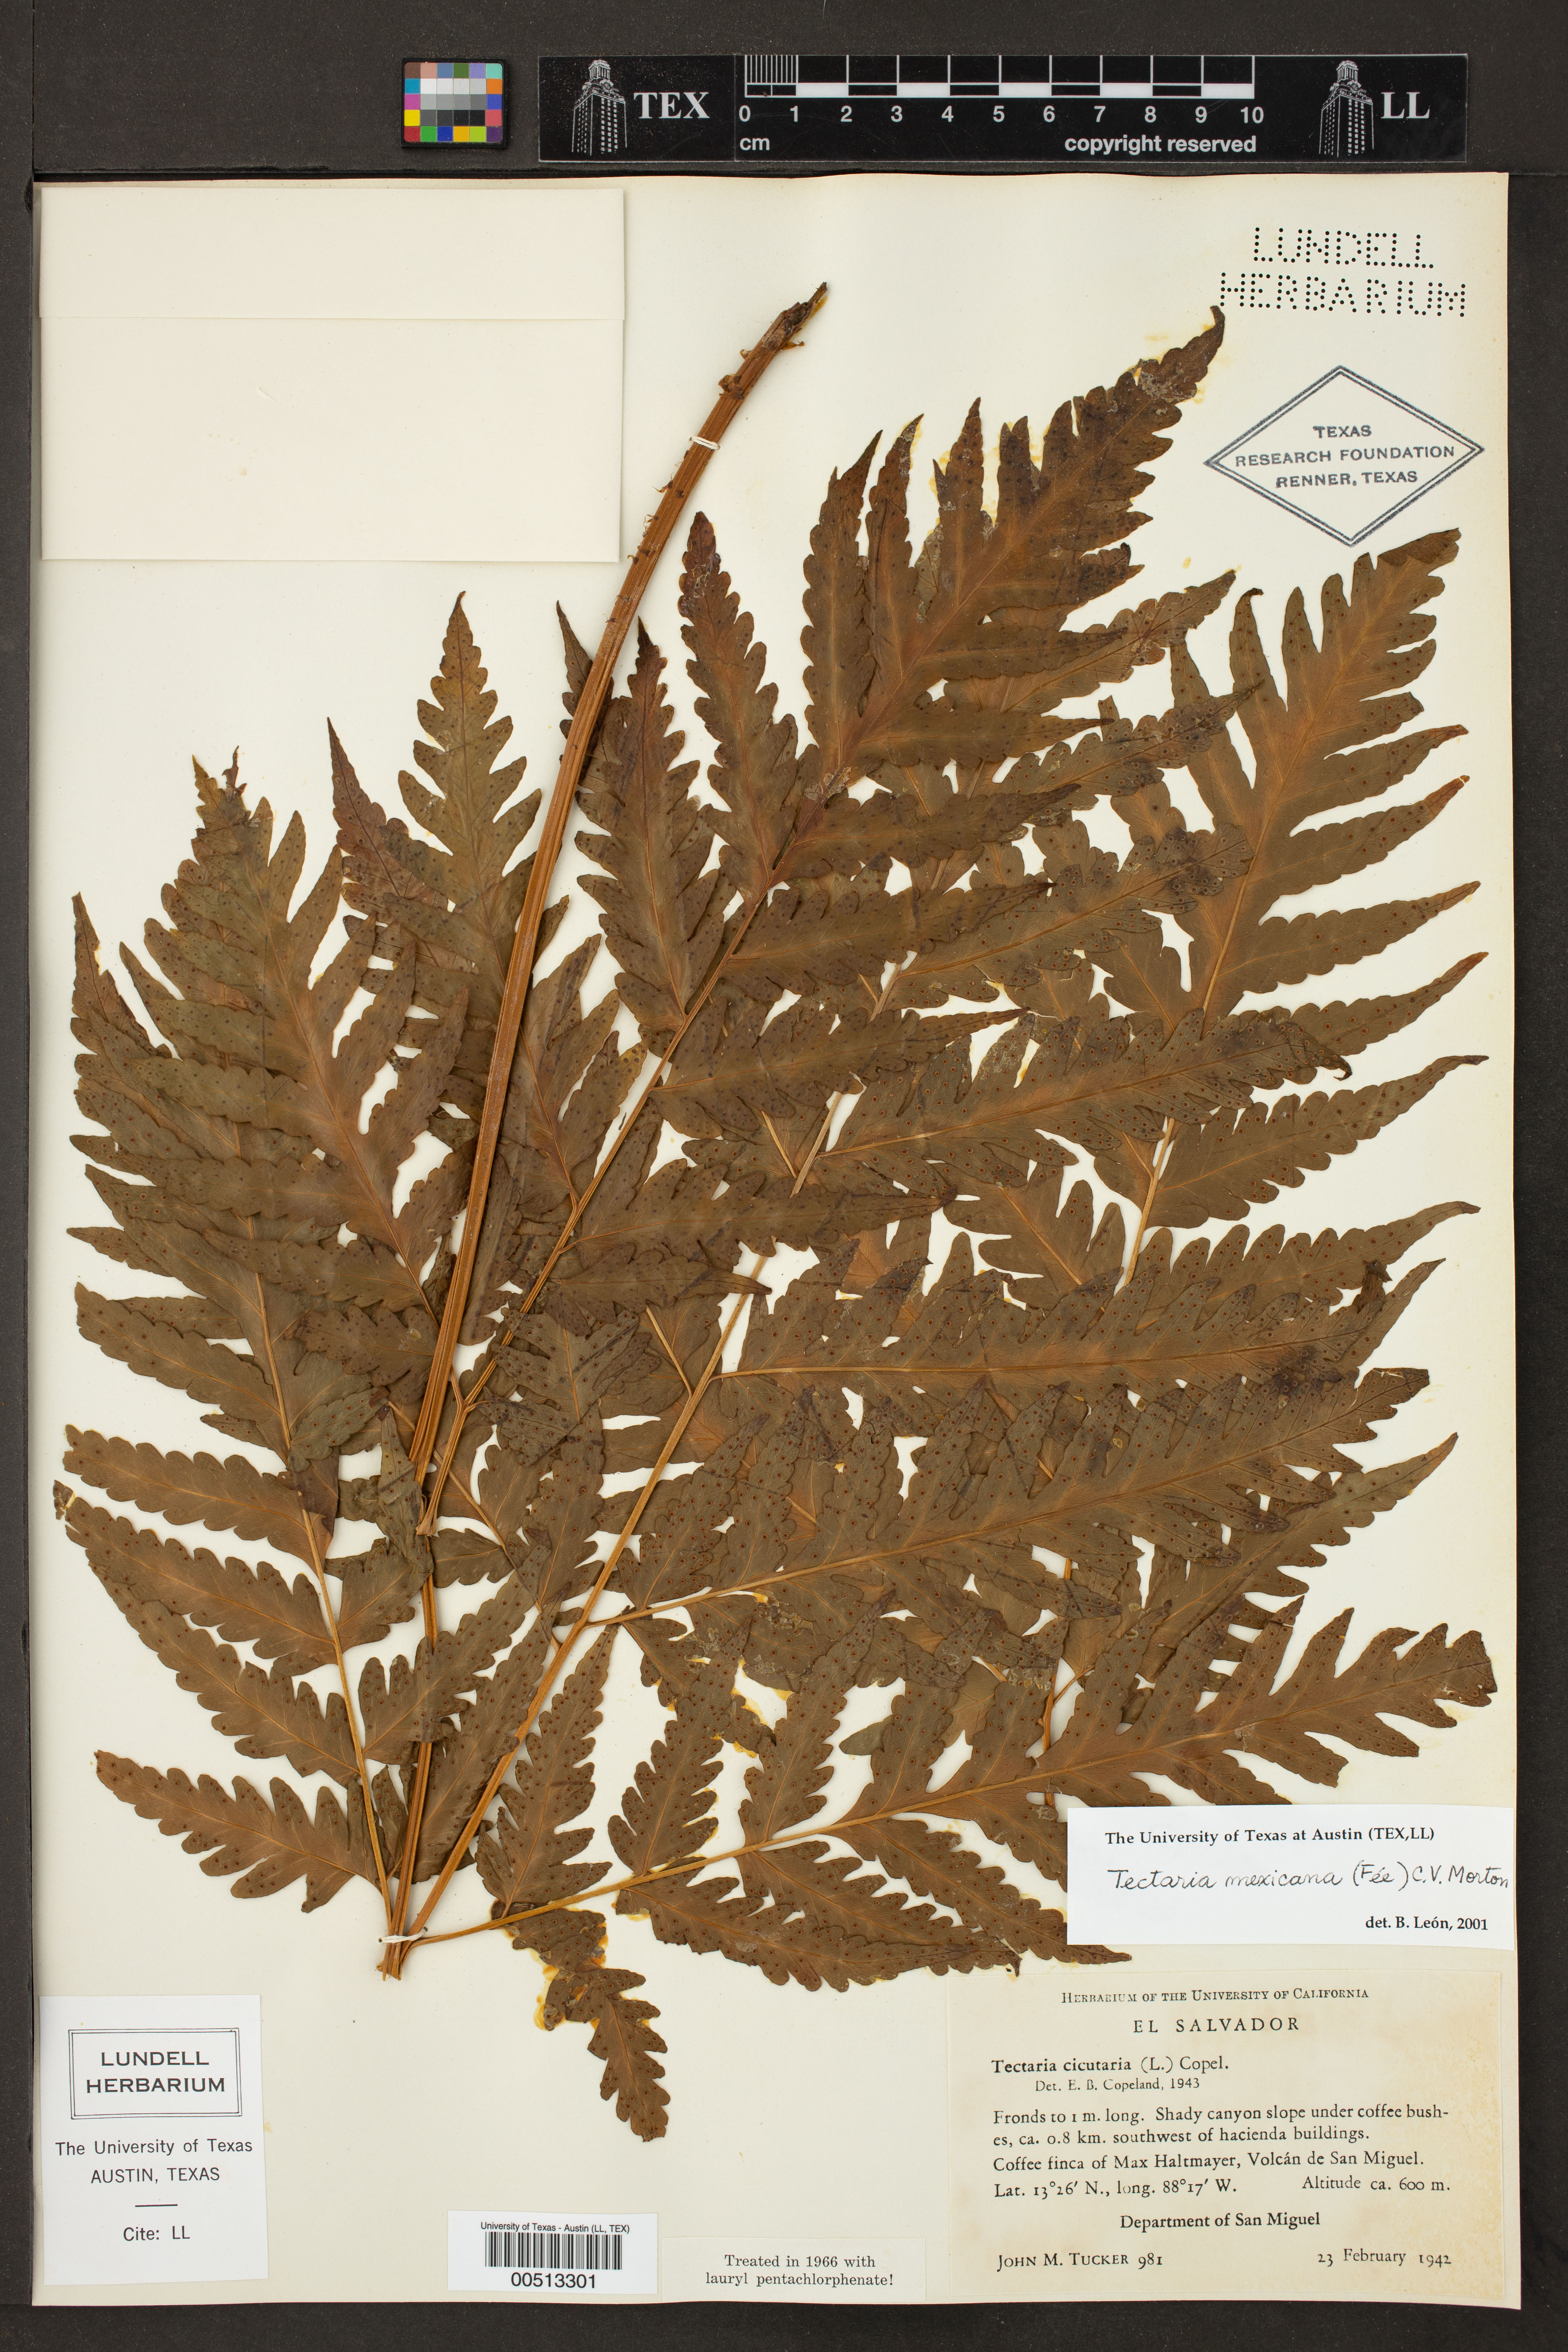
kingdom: Plantae
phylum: Tracheophyta
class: Polypodiopsida
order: Polypodiales
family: Tectariaceae
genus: Tectaria
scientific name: Tectaria mexicana
